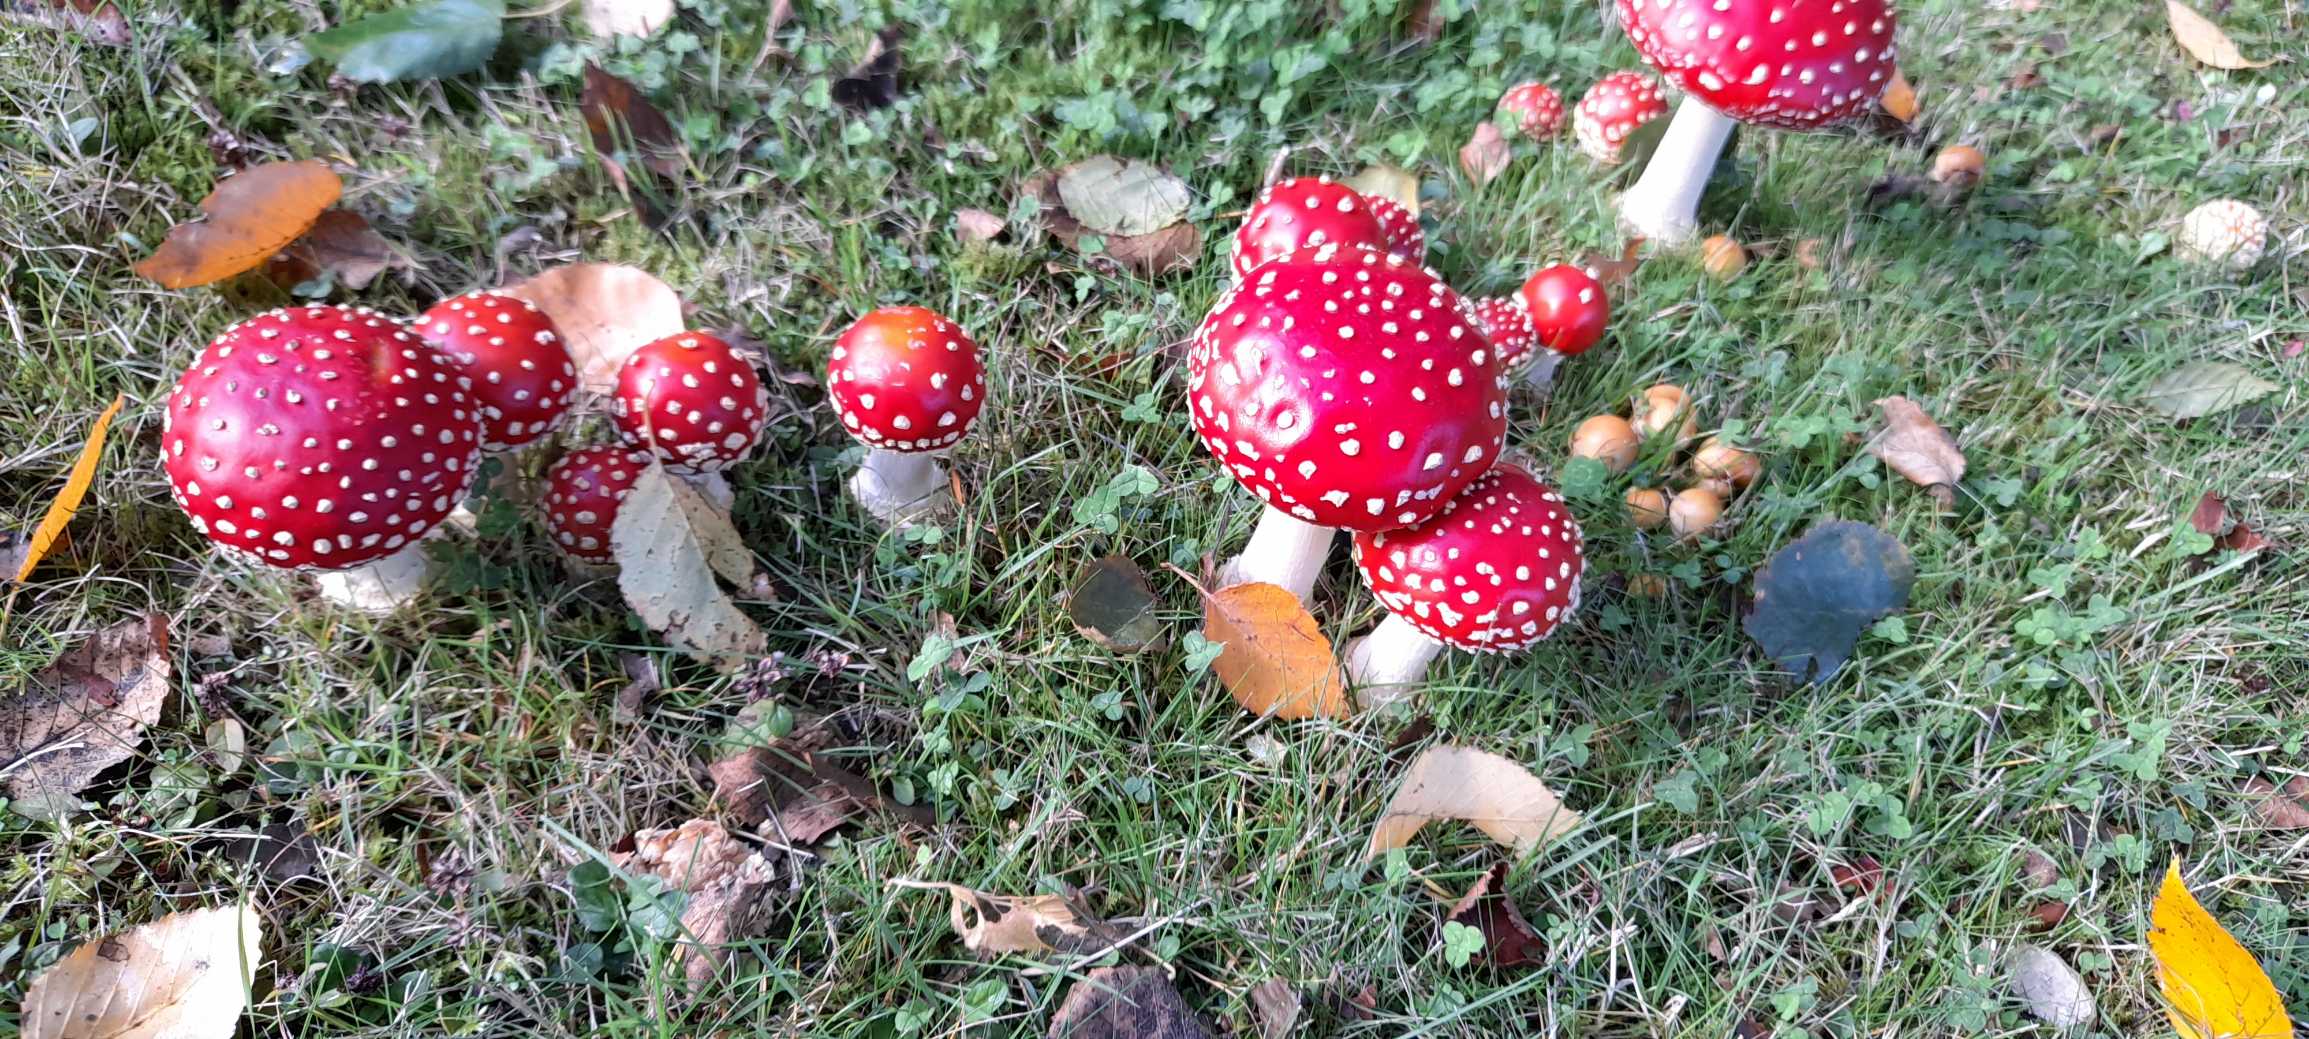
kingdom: Fungi
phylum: Basidiomycota
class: Agaricomycetes
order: Agaricales
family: Amanitaceae
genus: Amanita
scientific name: Amanita muscaria
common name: Rød fluesvamp
